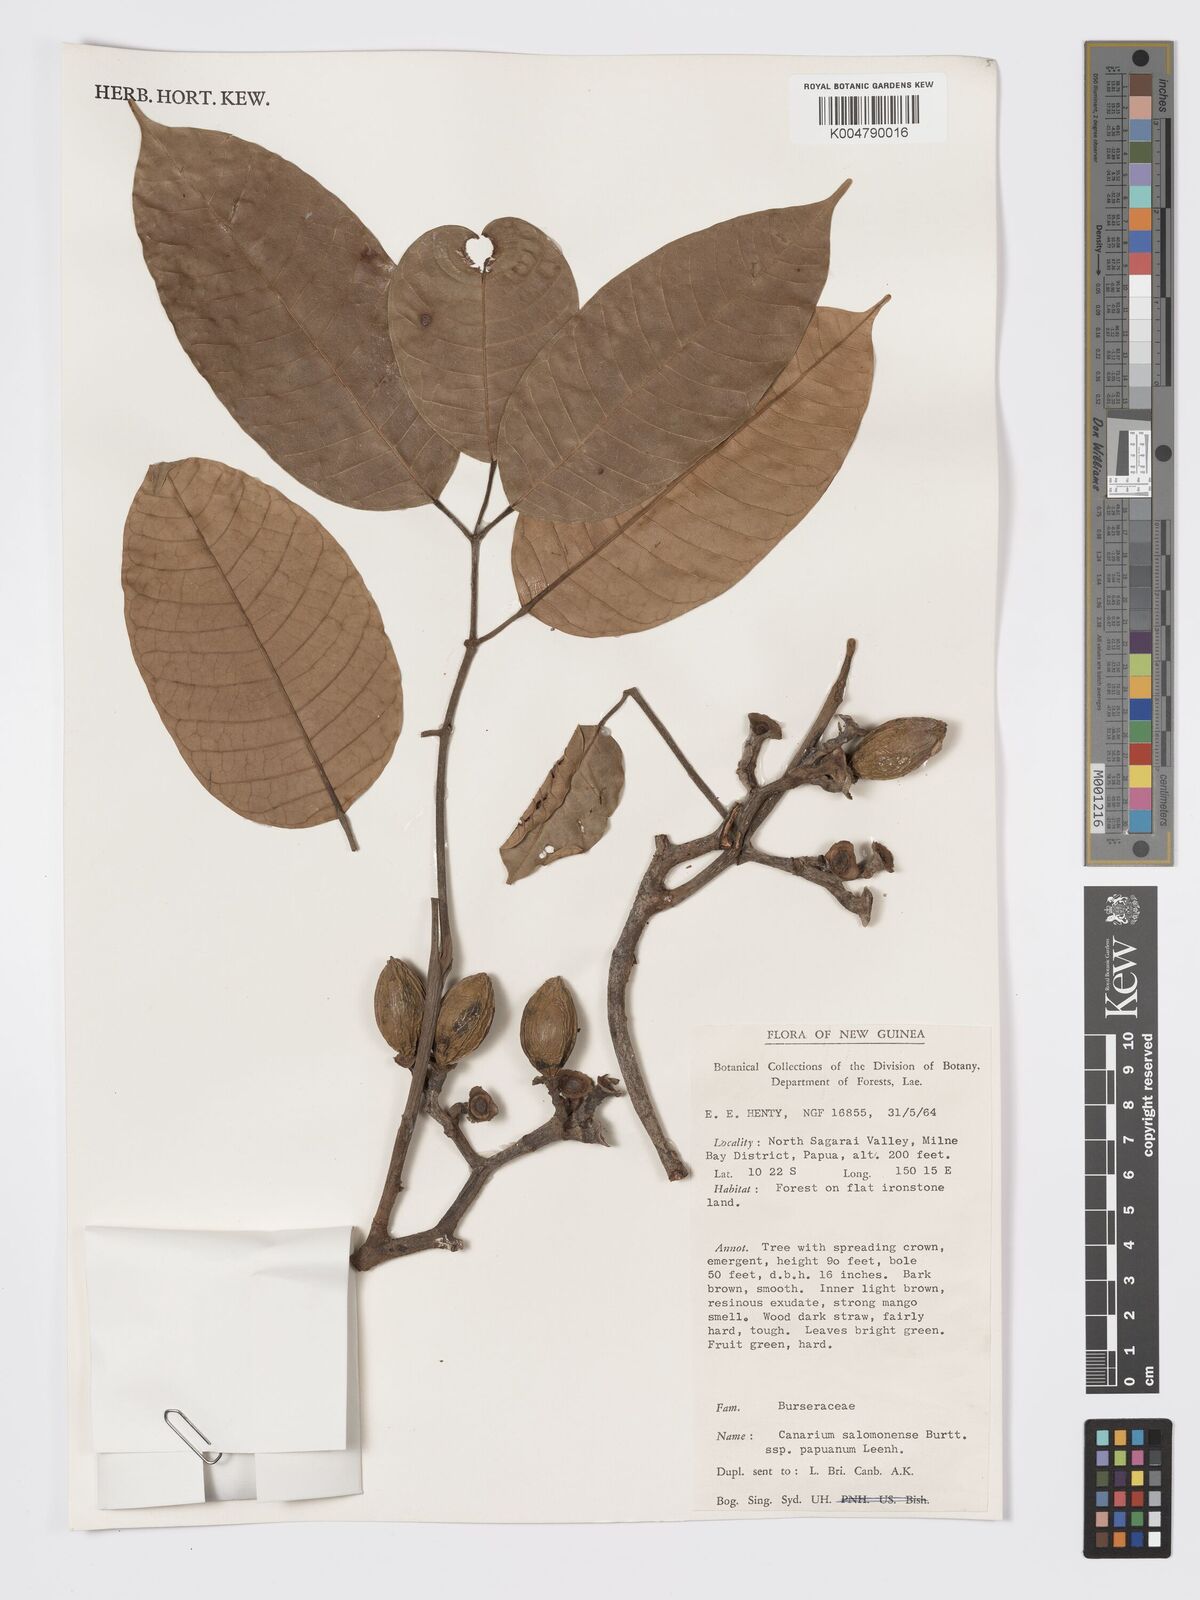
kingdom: Plantae
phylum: Tracheophyta
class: Magnoliopsida
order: Sapindales
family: Burseraceae
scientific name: Burseraceae
